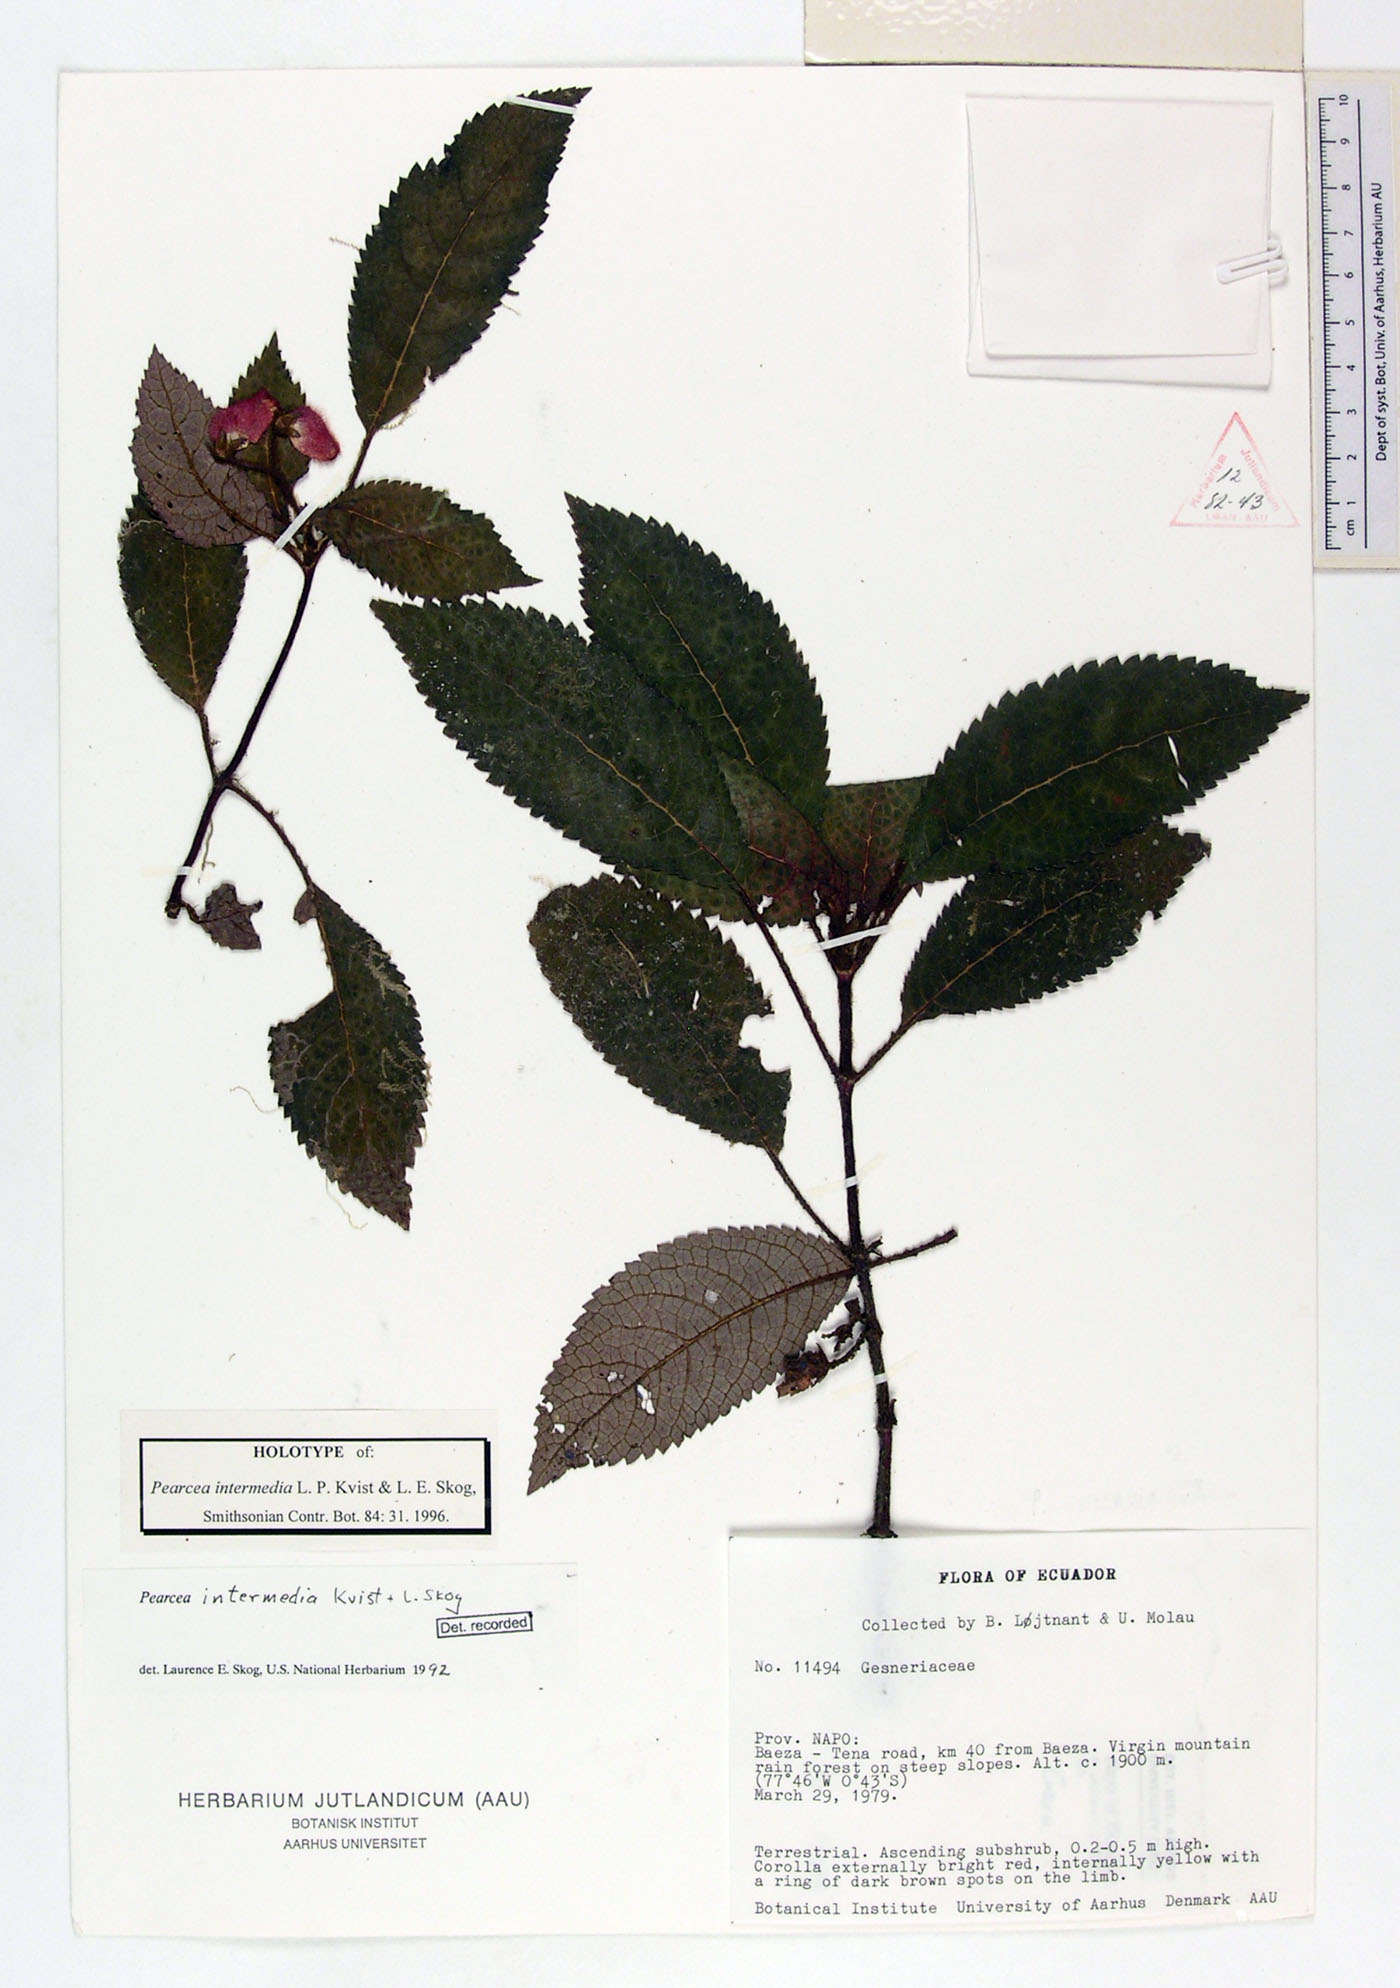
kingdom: Plantae
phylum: Tracheophyta
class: Magnoliopsida
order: Lamiales
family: Gesneriaceae
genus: Pearcea
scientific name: Pearcea intermedia
